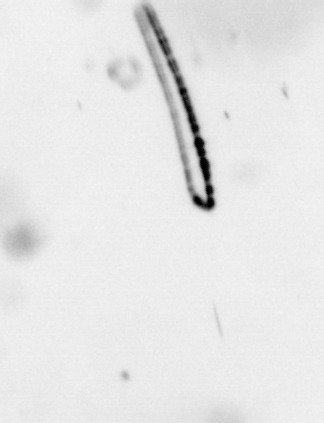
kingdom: Chromista
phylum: Ochrophyta
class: Bacillariophyceae
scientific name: Bacillariophyceae
